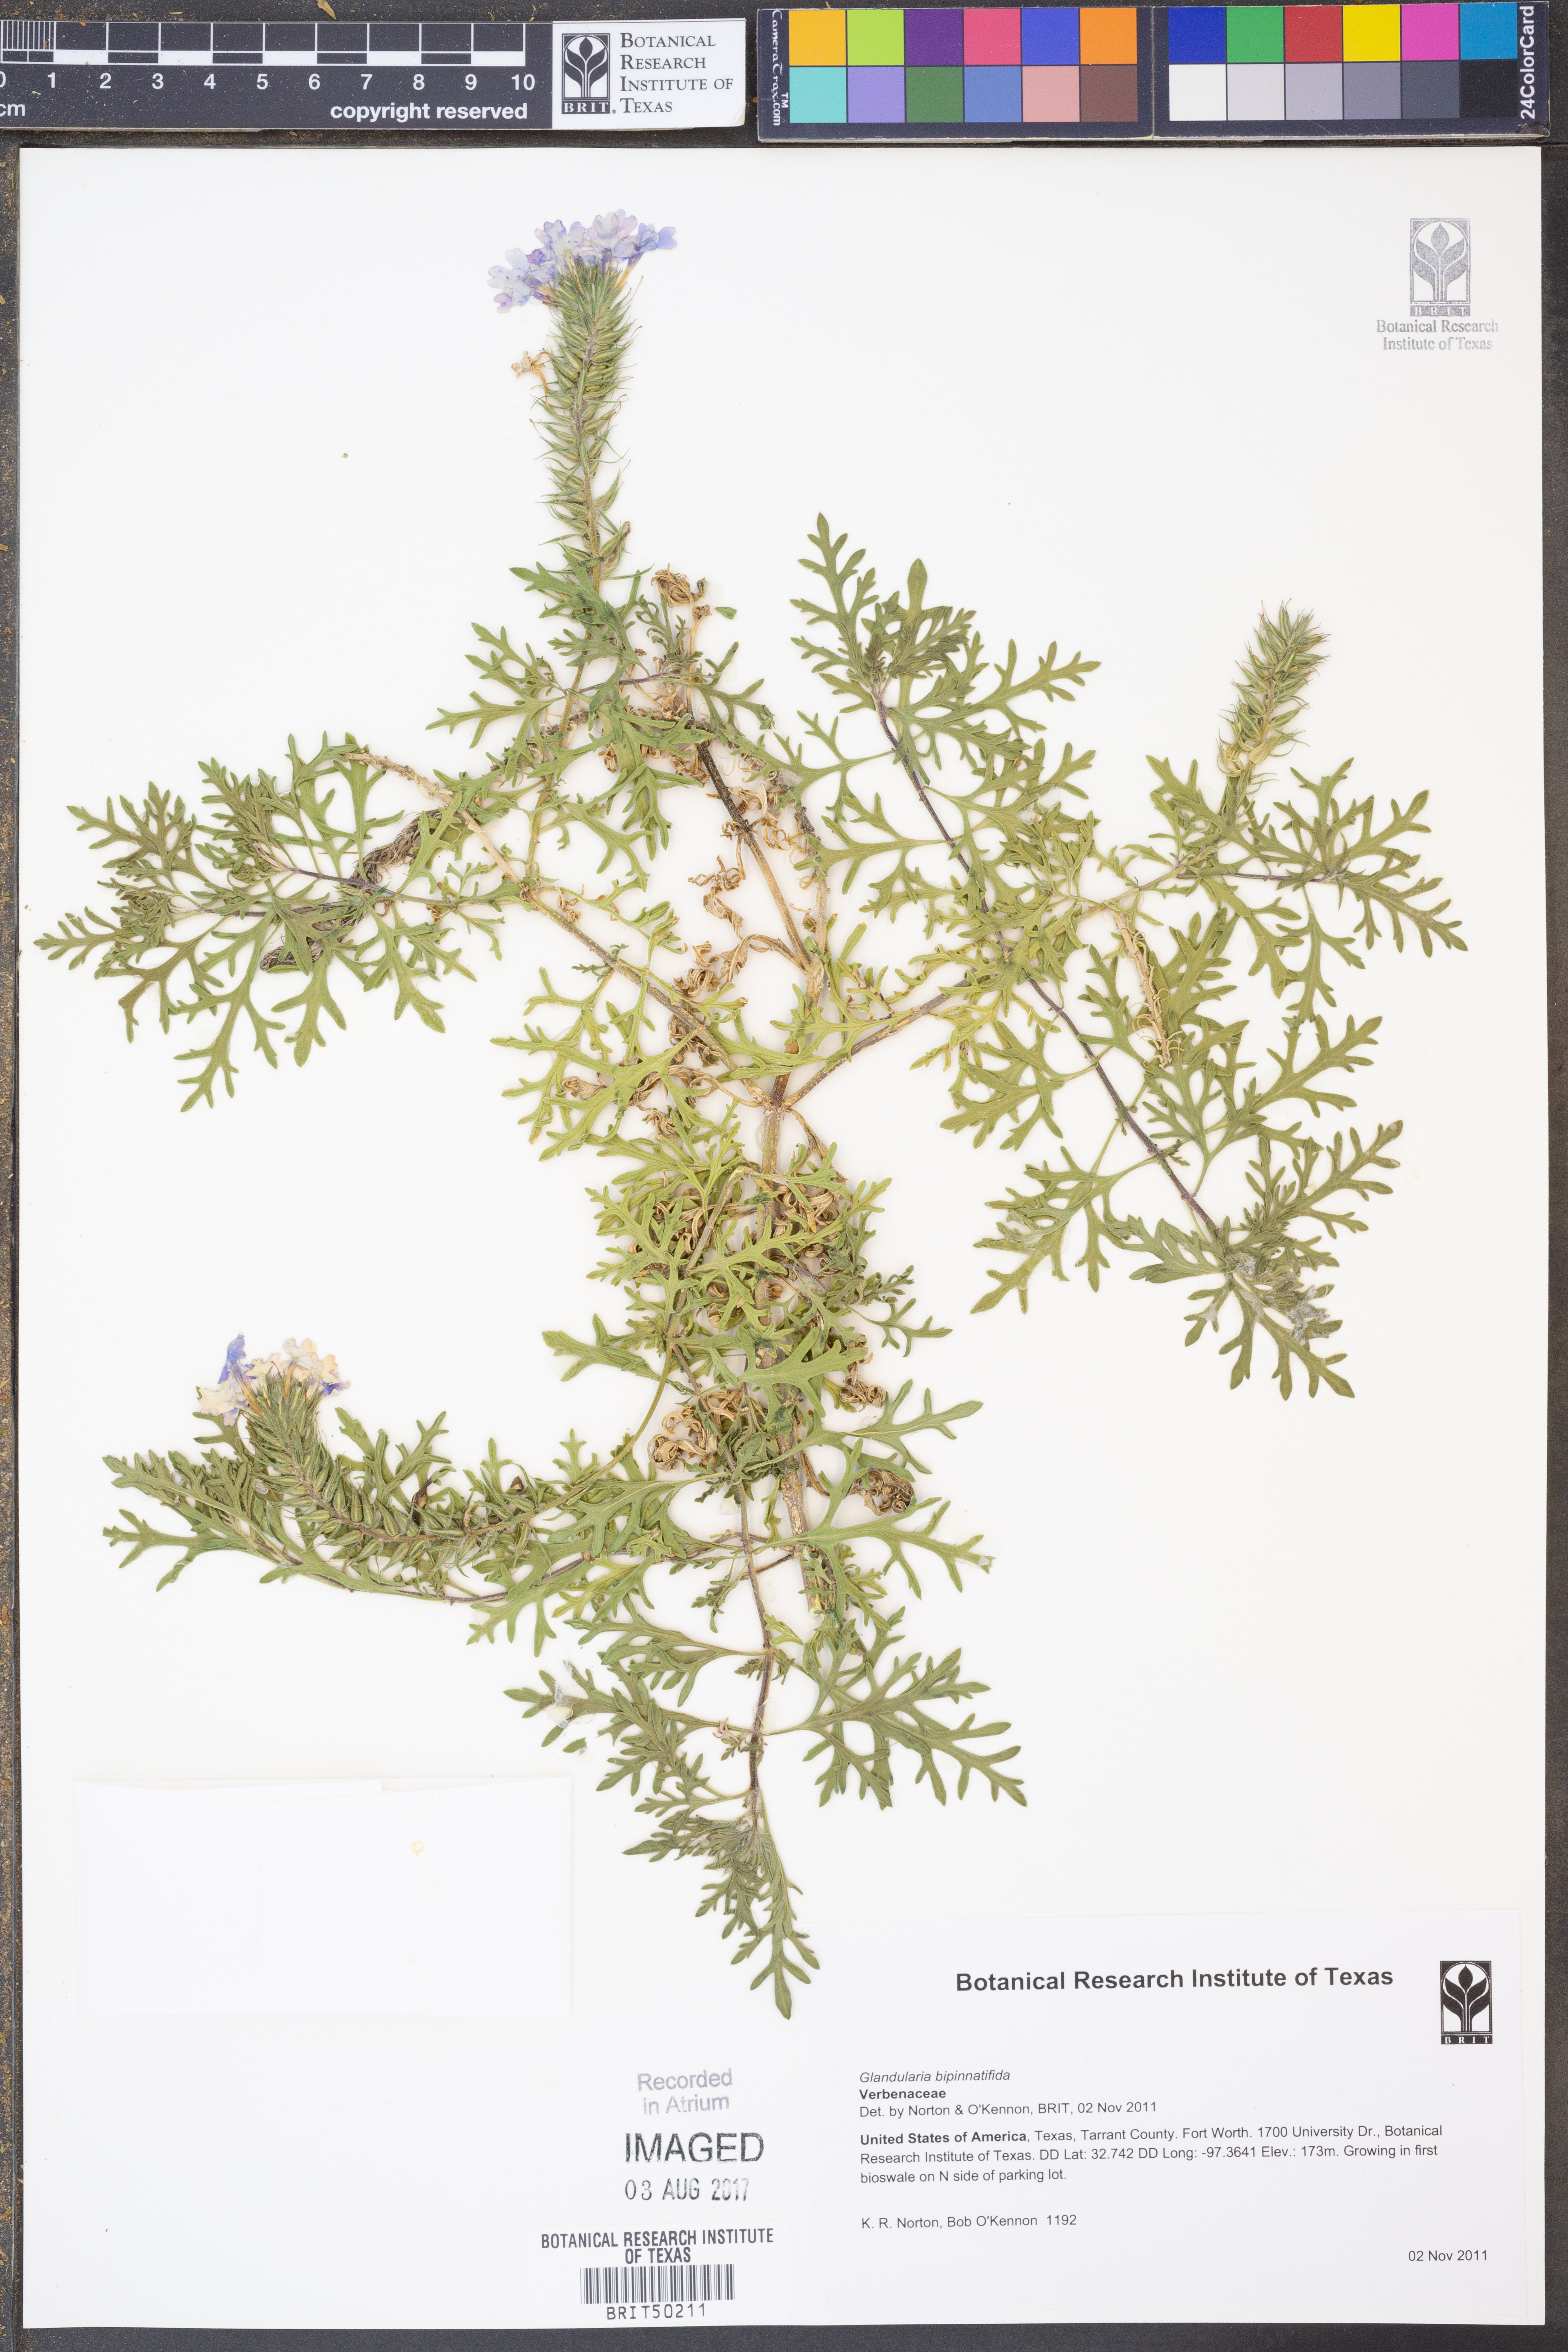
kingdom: Plantae
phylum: Tracheophyta
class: Magnoliopsida
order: Lamiales
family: Verbenaceae
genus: Verbena
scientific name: Verbena bipinnatifida
